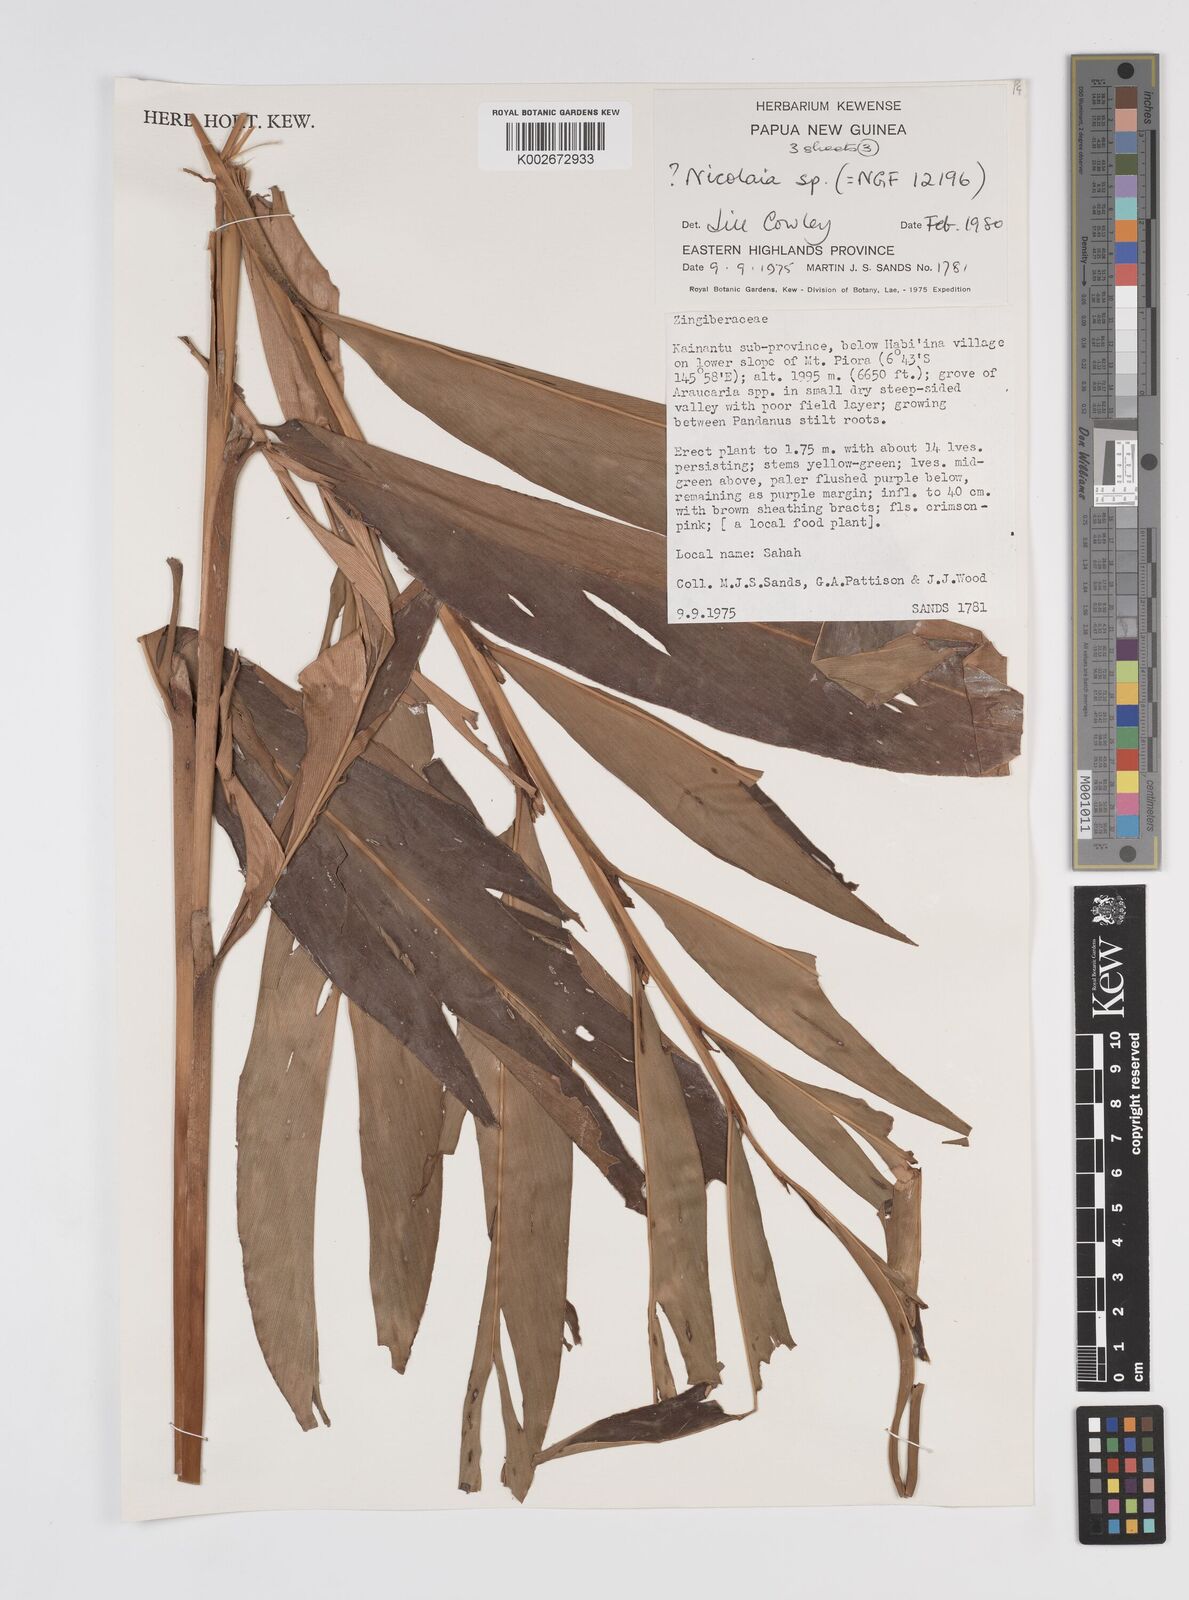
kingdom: Plantae
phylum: Tracheophyta
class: Liliopsida
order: Zingiberales
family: Zingiberaceae
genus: Etlingera
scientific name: Etlingera
